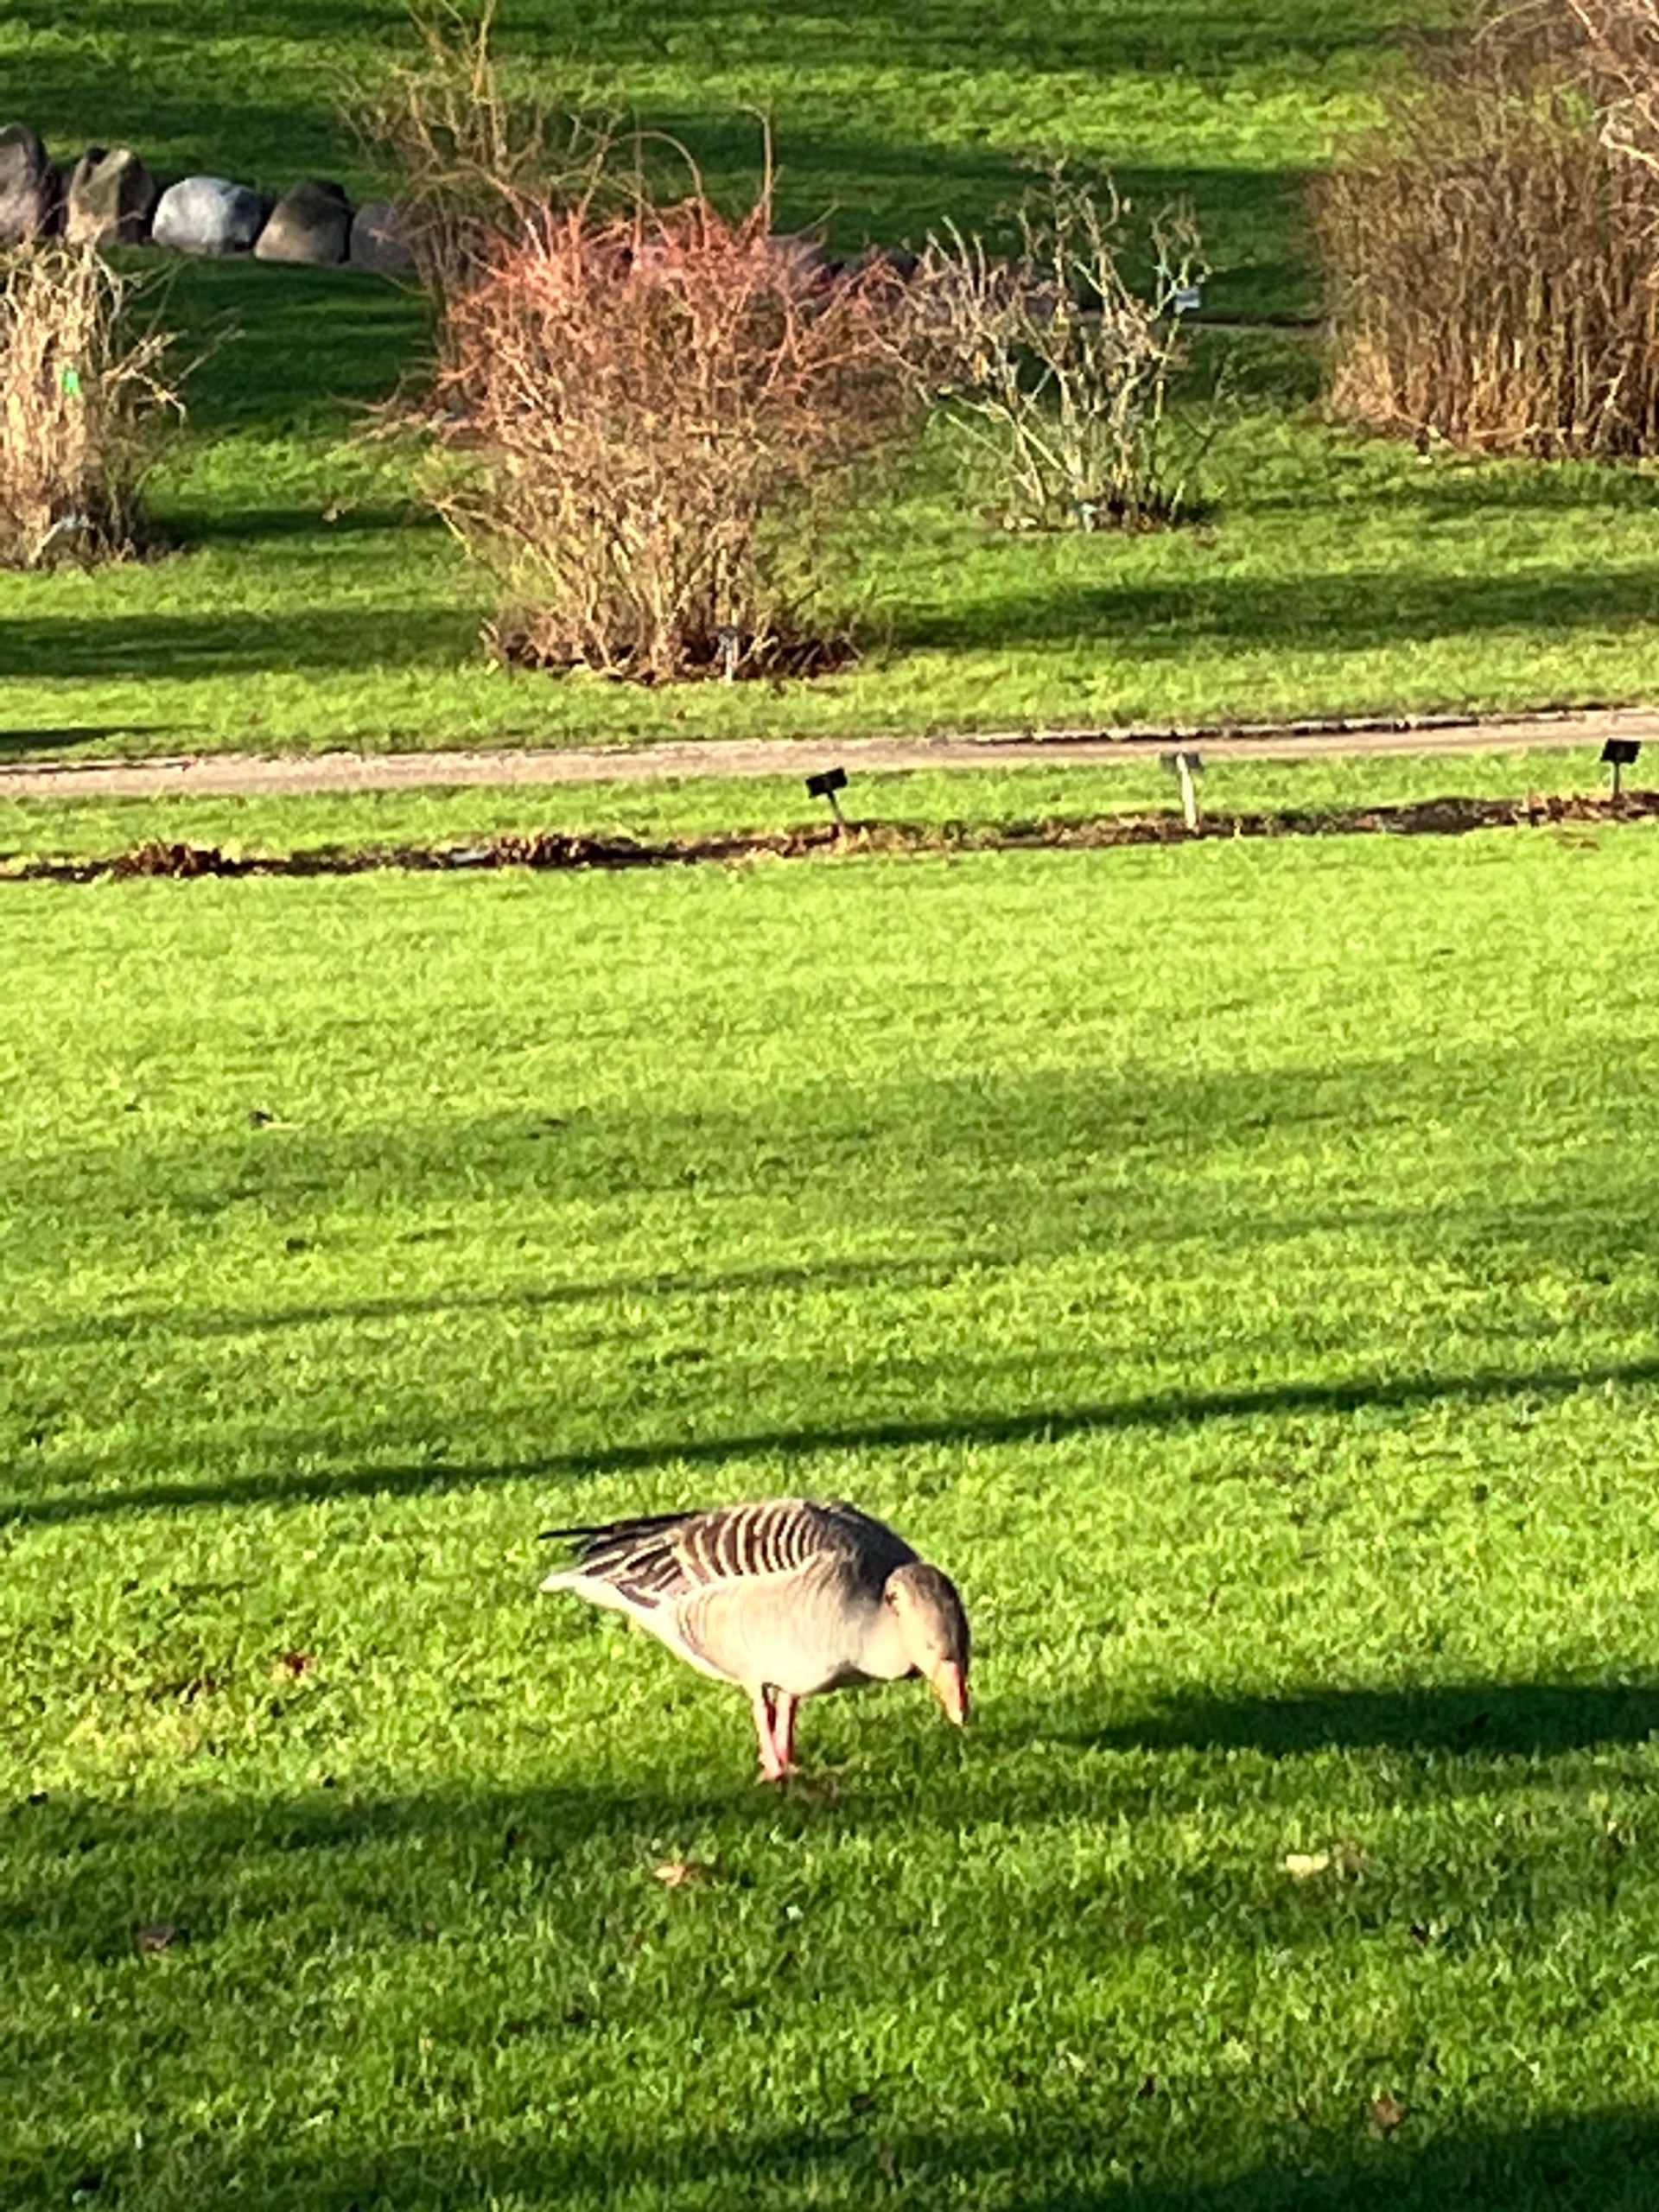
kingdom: Animalia
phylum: Chordata
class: Aves
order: Anseriformes
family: Anatidae
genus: Anser
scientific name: Anser anser
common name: Grågås
